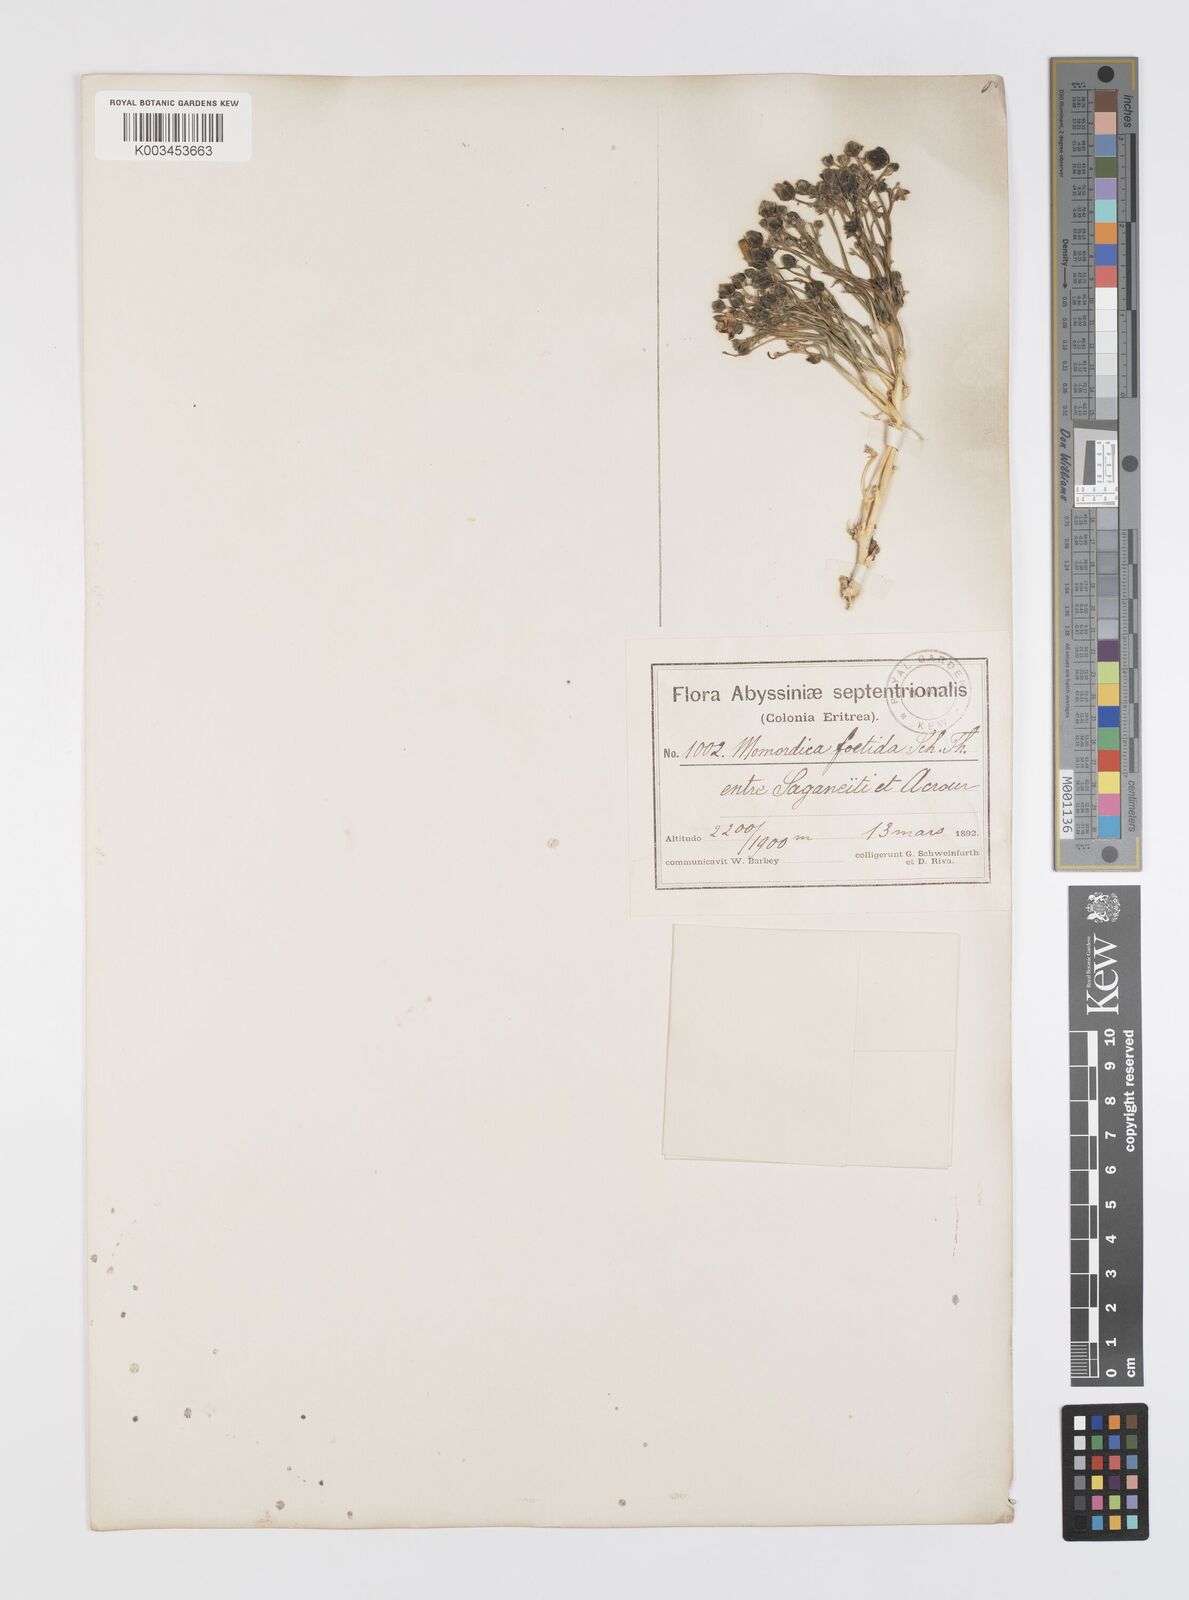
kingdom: Plantae
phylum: Tracheophyta
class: Magnoliopsida
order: Cucurbitales
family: Cucurbitaceae
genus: Momordica
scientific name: Momordica foetida
